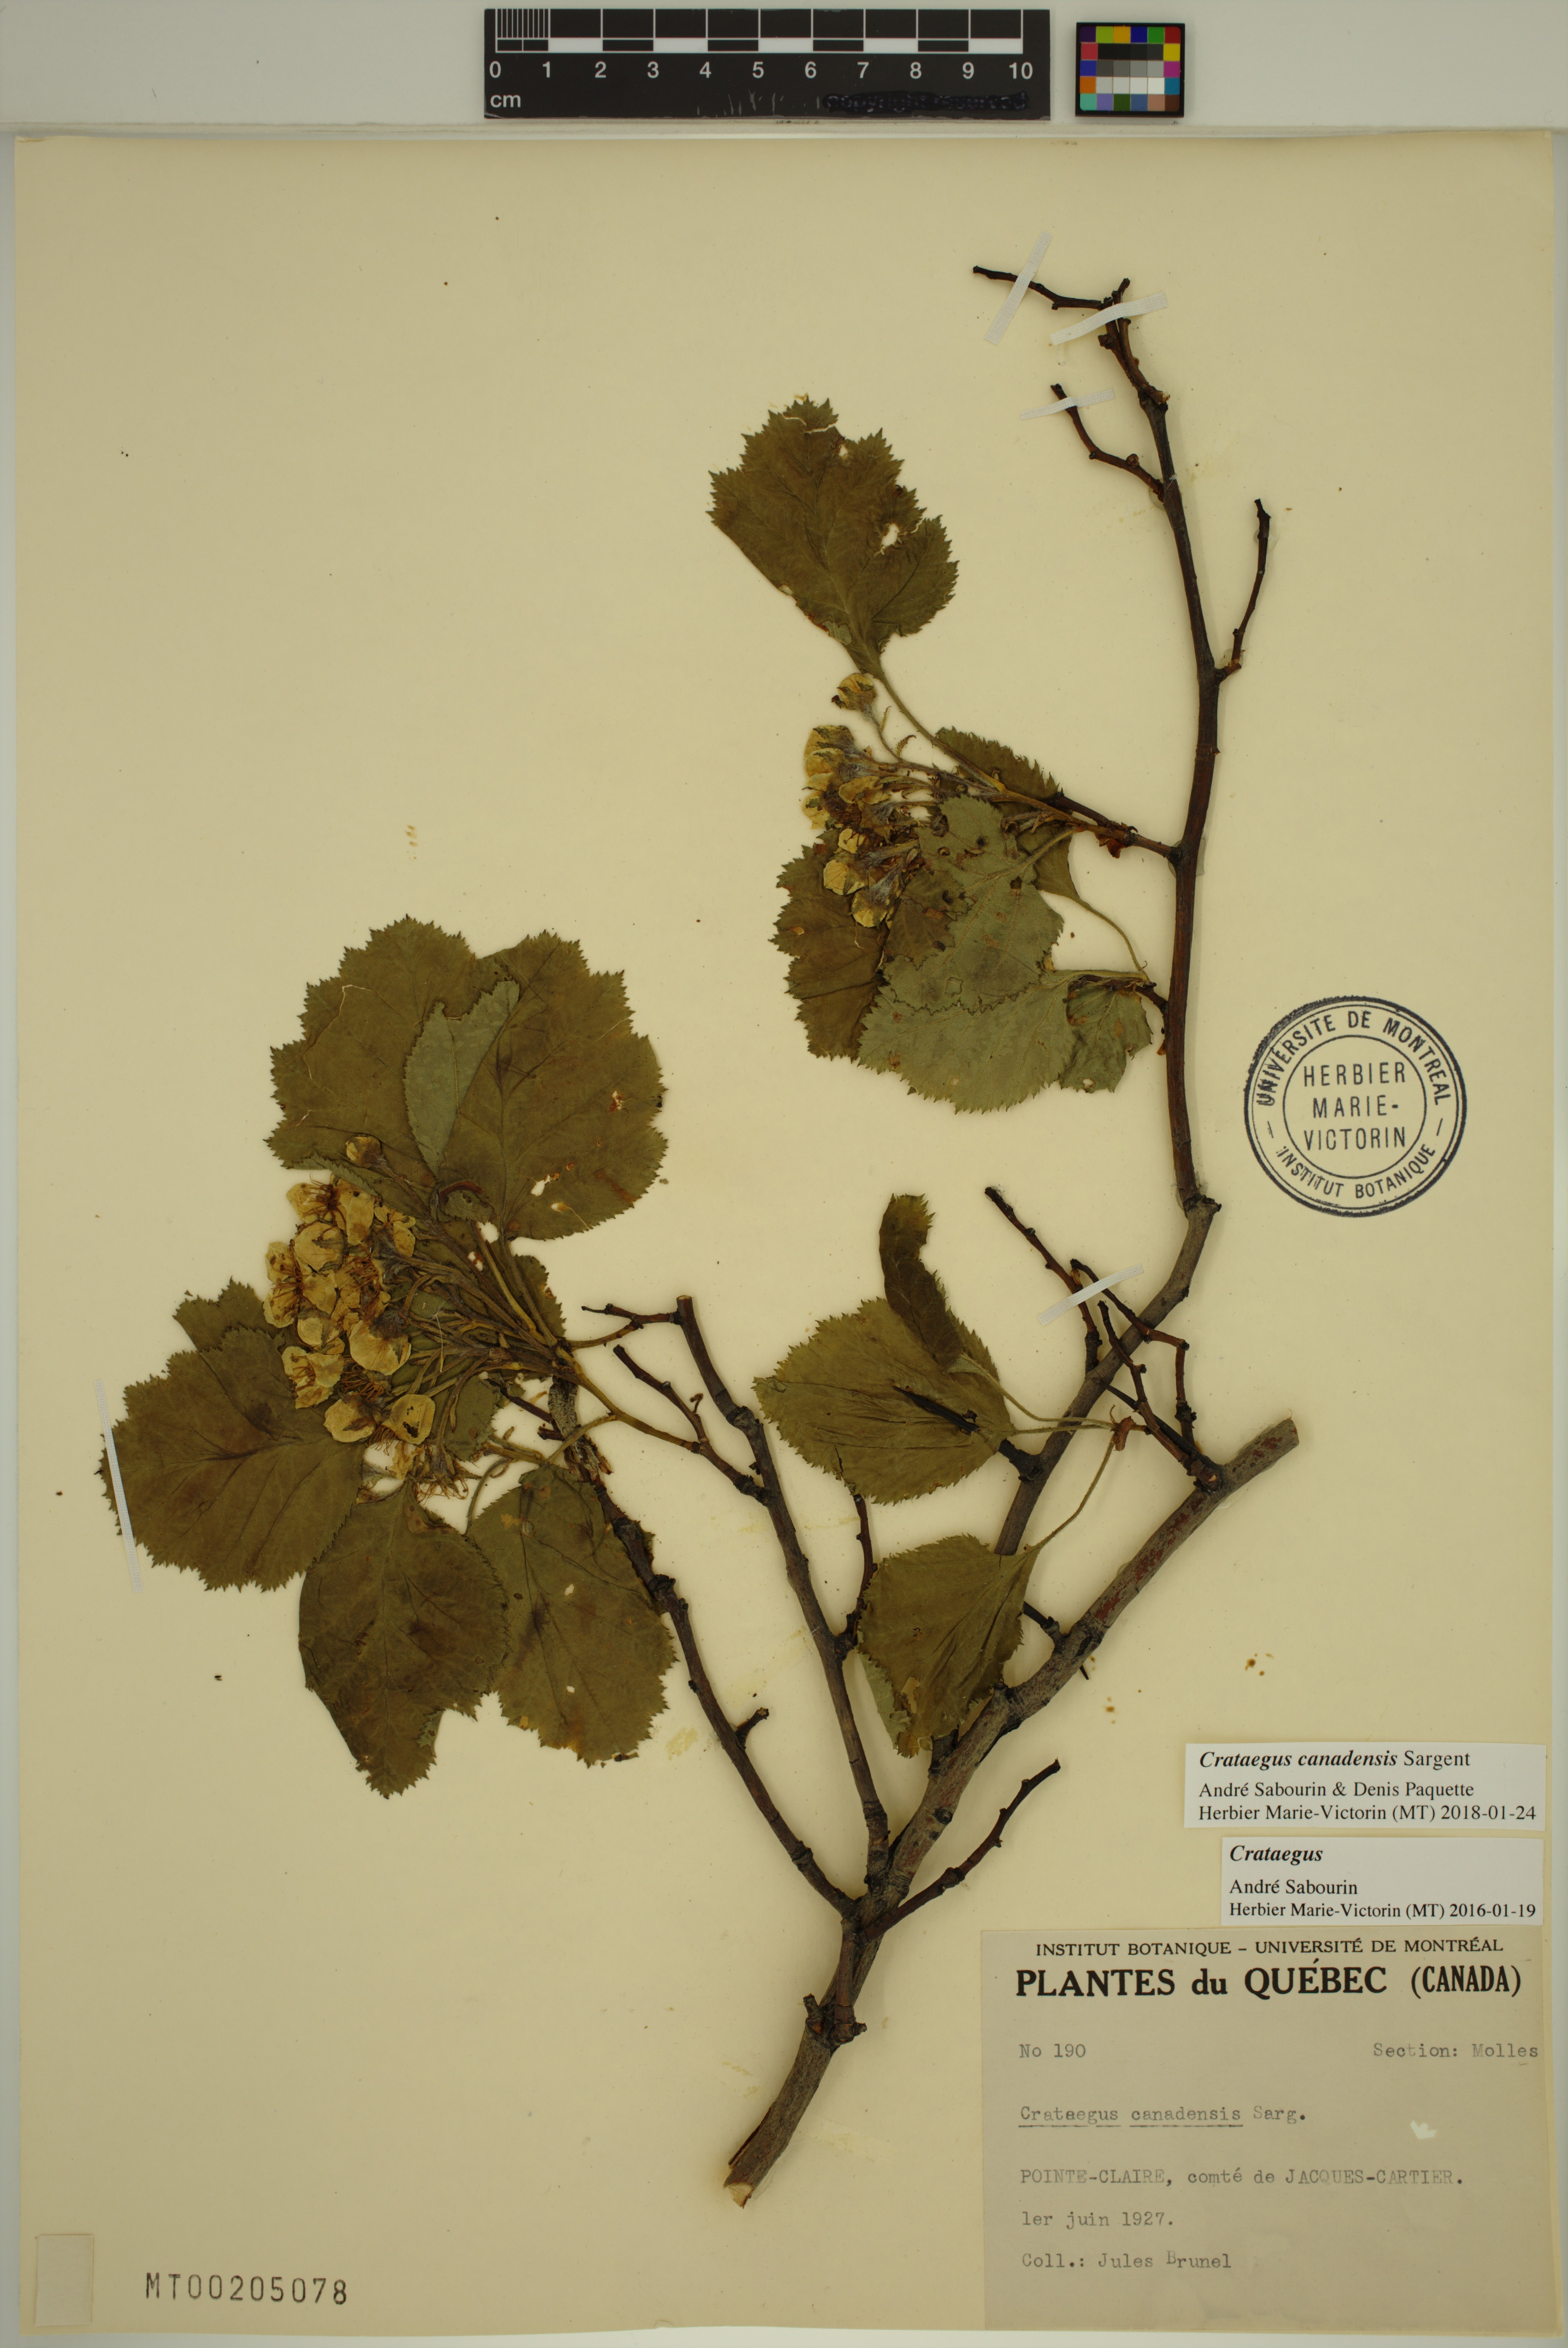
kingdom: Plantae
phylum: Tracheophyta
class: Magnoliopsida
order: Rosales
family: Rosaceae
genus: Crataegus
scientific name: Crataegus submollis
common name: Hairy cockspurthorn
